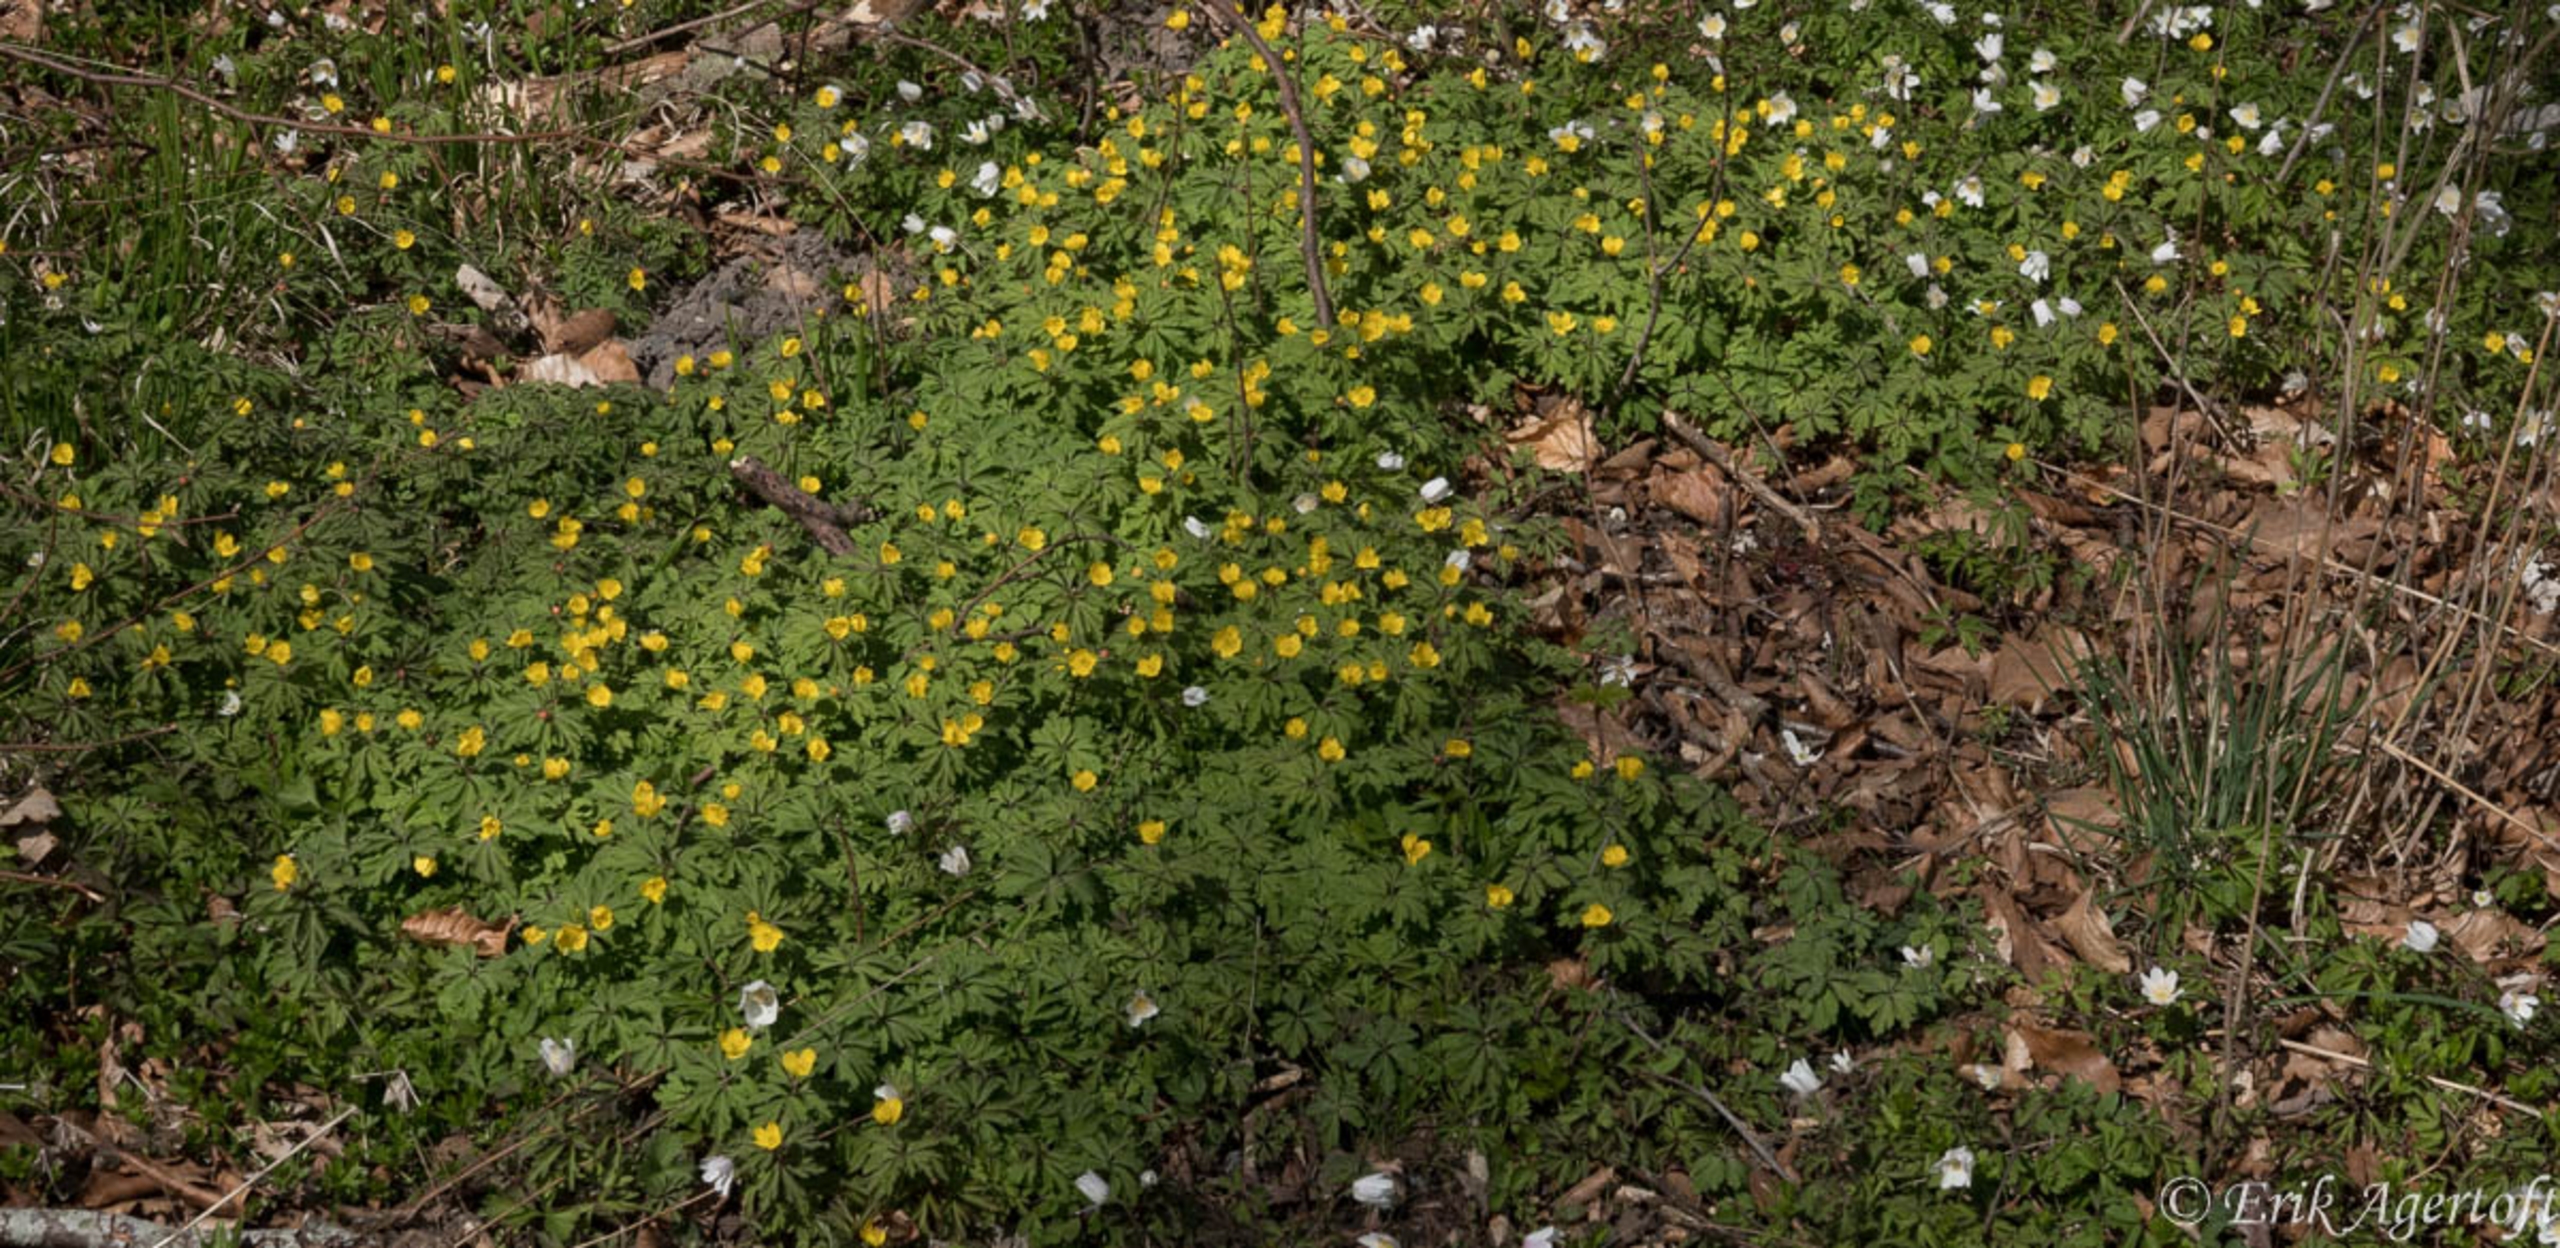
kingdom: Plantae
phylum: Tracheophyta
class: Magnoliopsida
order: Ranunculales
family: Ranunculaceae
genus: Anemone
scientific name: Anemone ranunculoides
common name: Gul anemone
